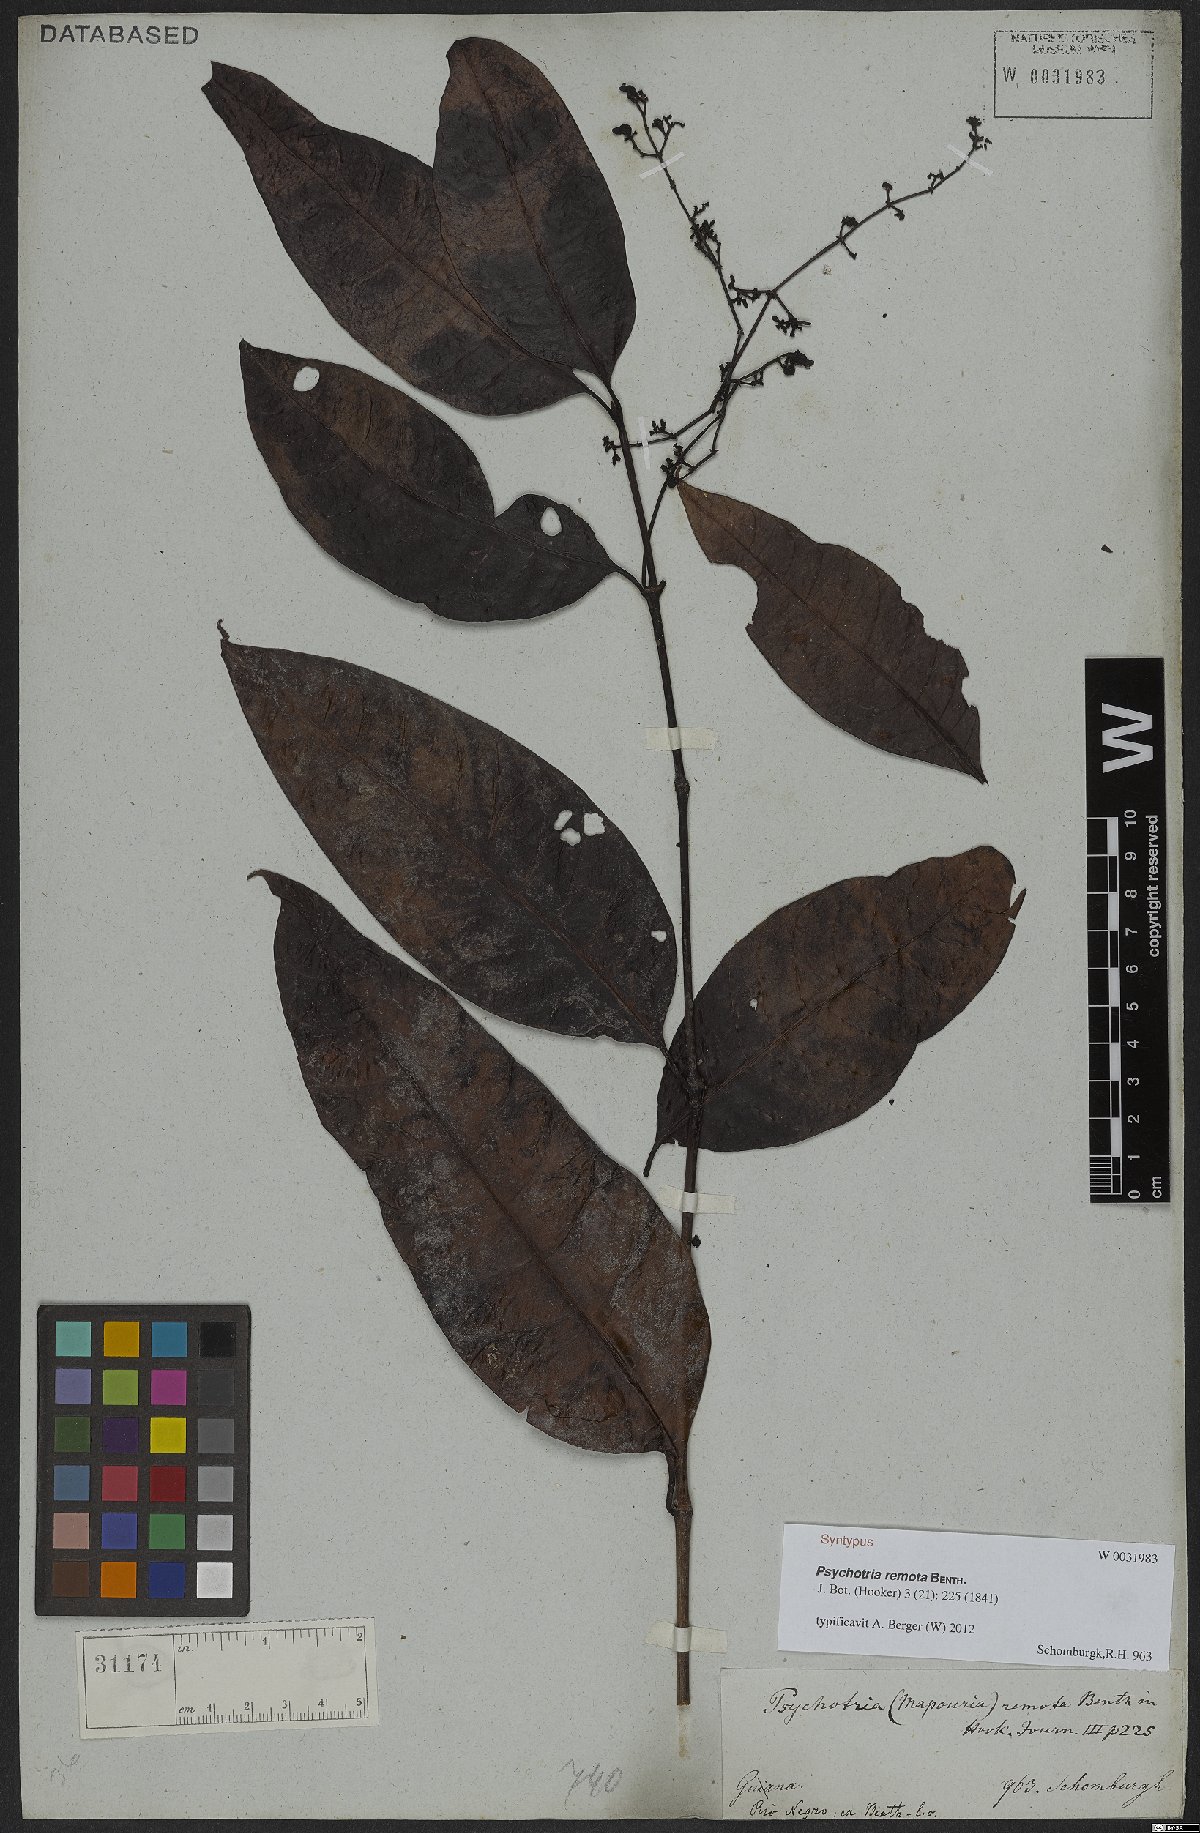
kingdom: Plantae
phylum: Tracheophyta
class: Magnoliopsida
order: Gentianales
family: Rubiaceae
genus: Psychotria
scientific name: Psychotria remota
